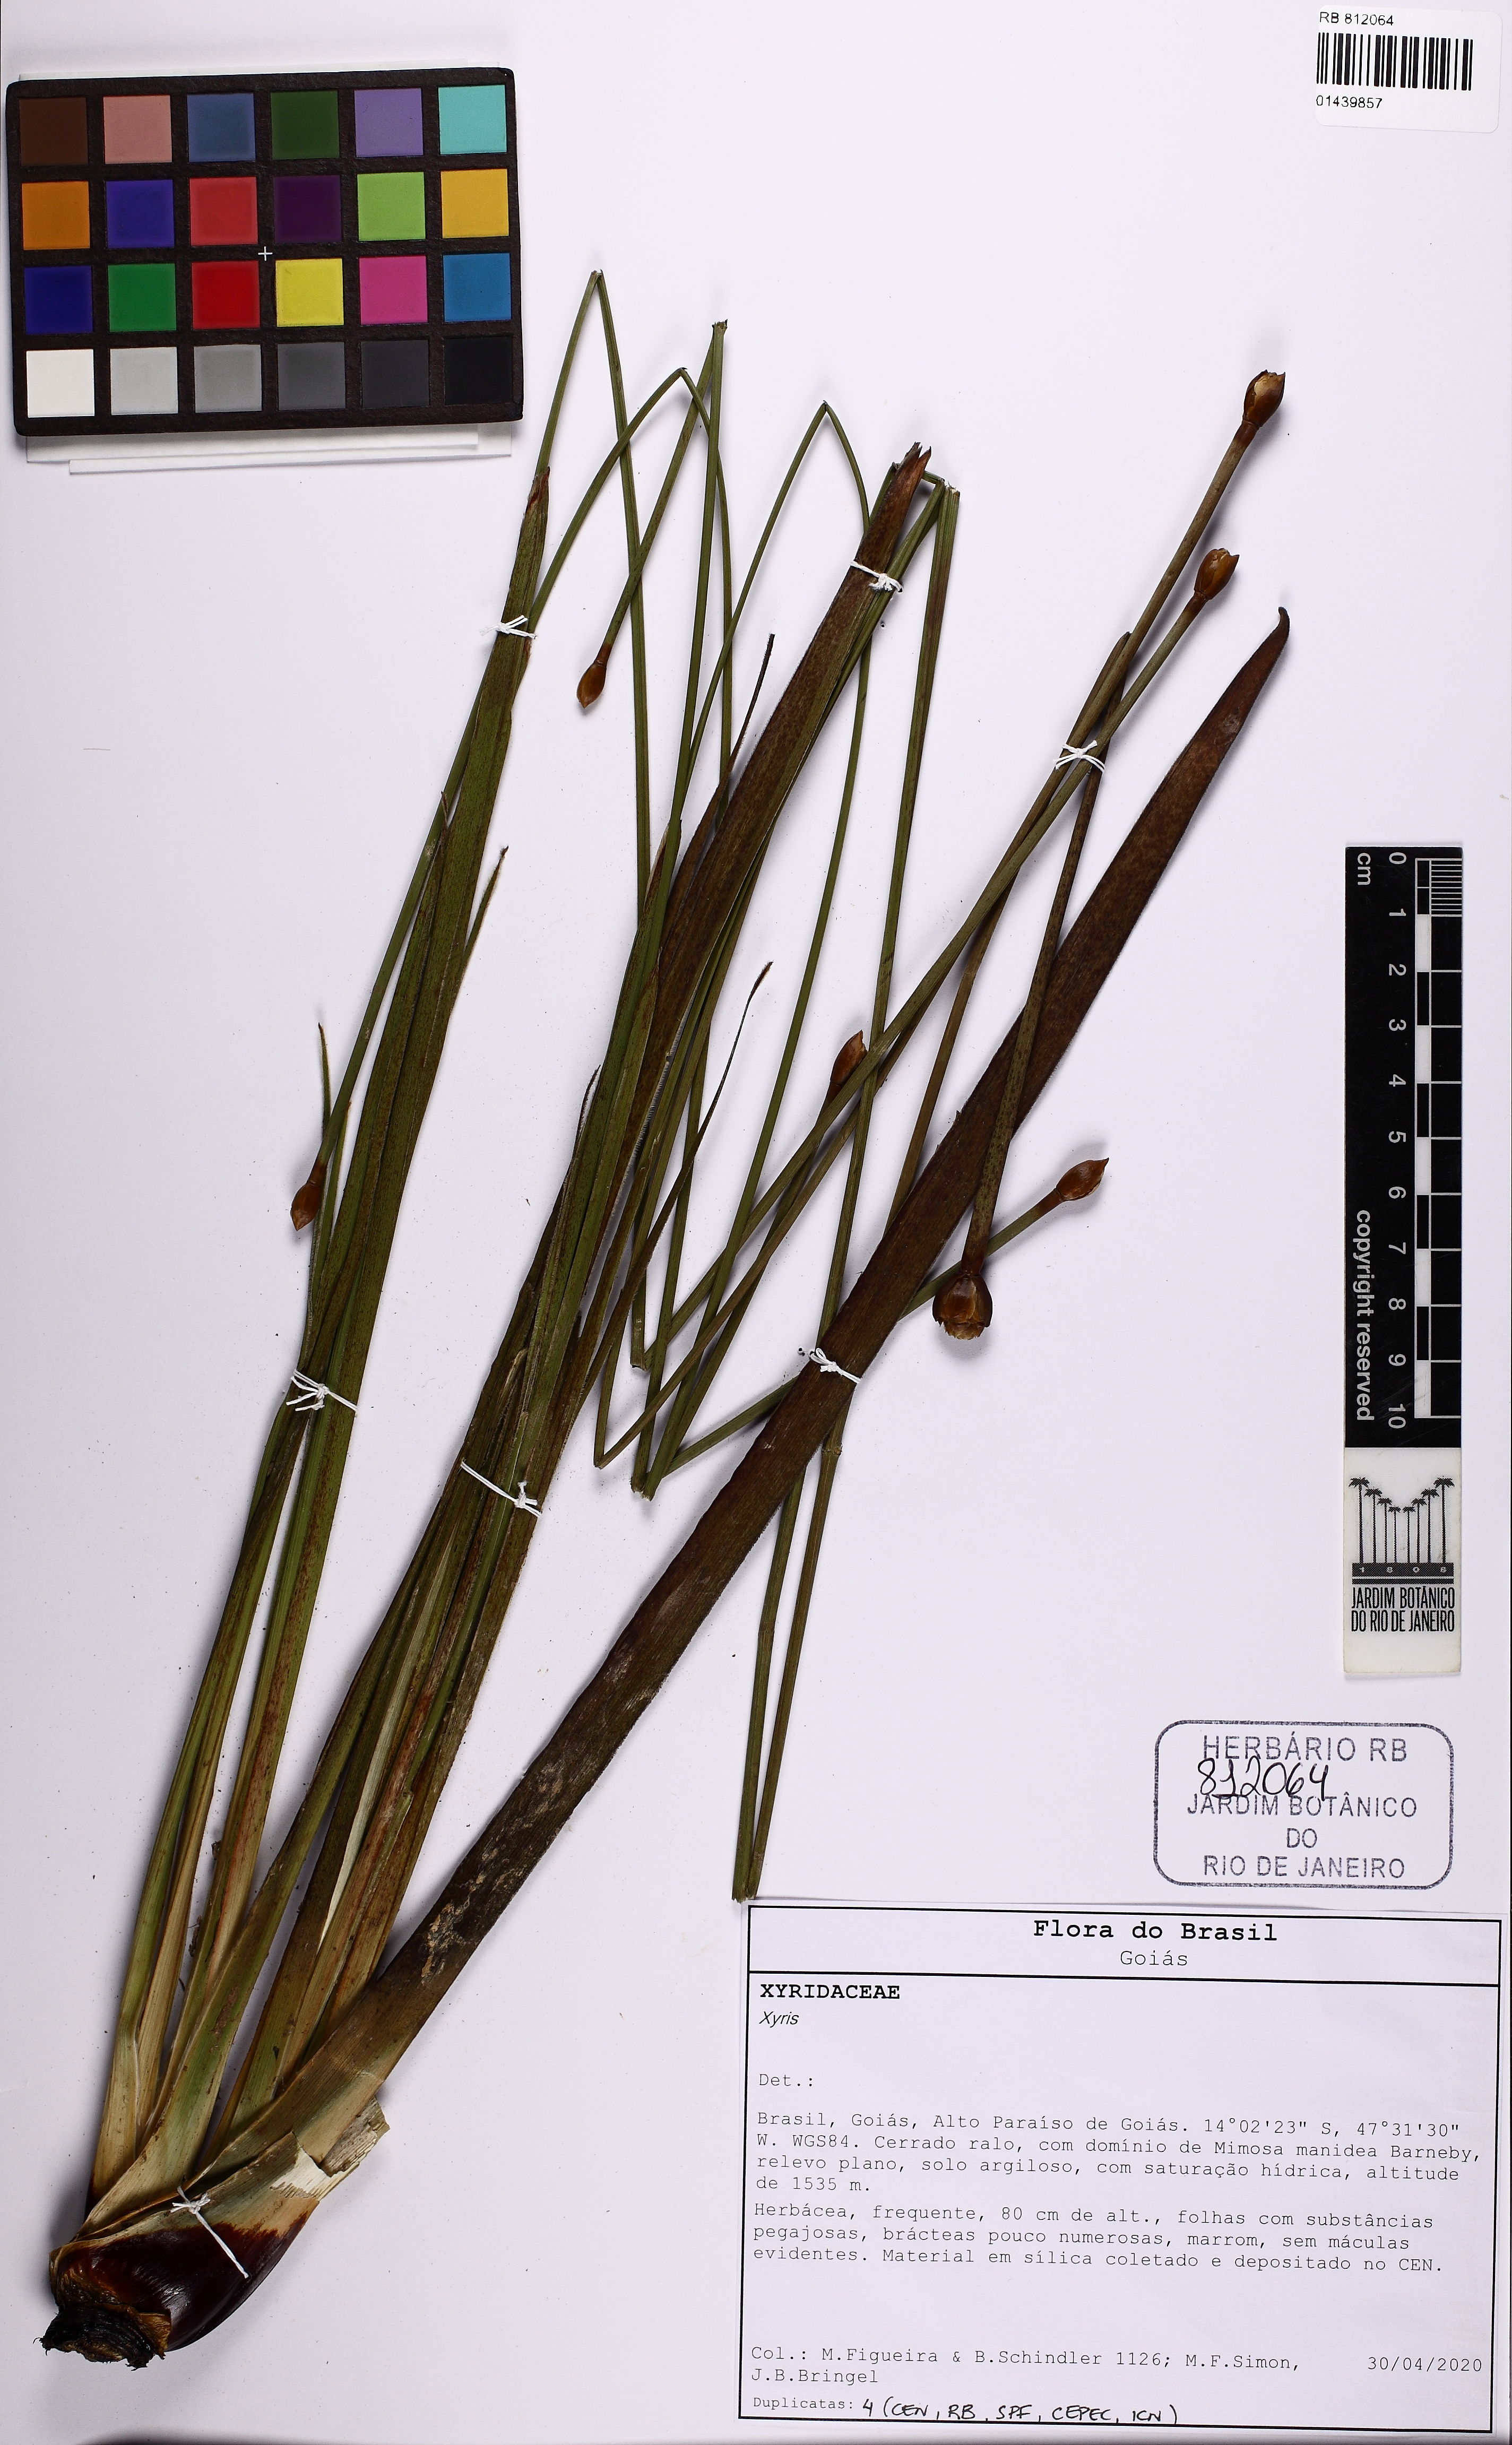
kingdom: Plantae
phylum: Tracheophyta
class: Liliopsida
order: Poales
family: Xyridaceae
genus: Xyris
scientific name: Xyris
